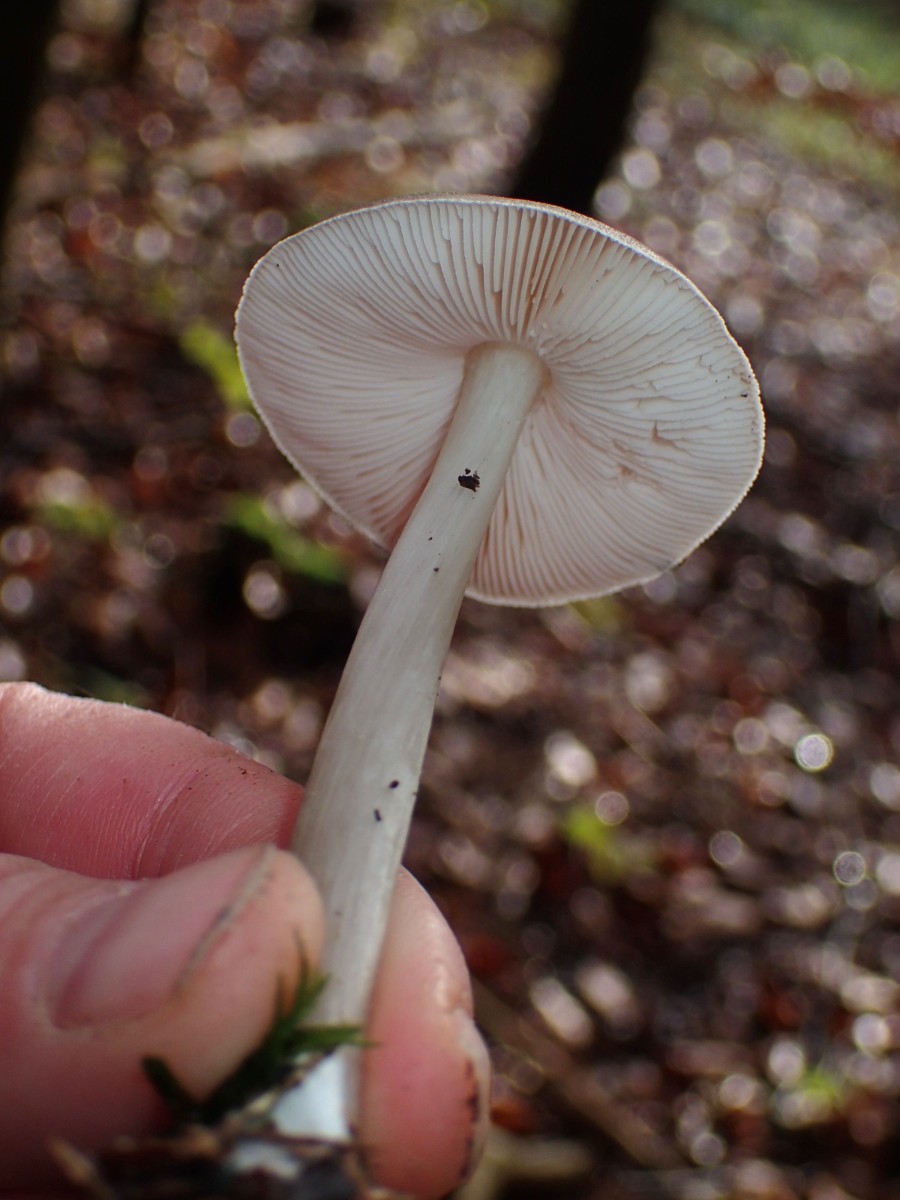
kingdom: Fungi
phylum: Basidiomycota
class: Agaricomycetes
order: Agaricales
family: Pluteaceae
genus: Pluteus
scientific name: Pluteus cervinus
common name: sodfarvet skærmhat
